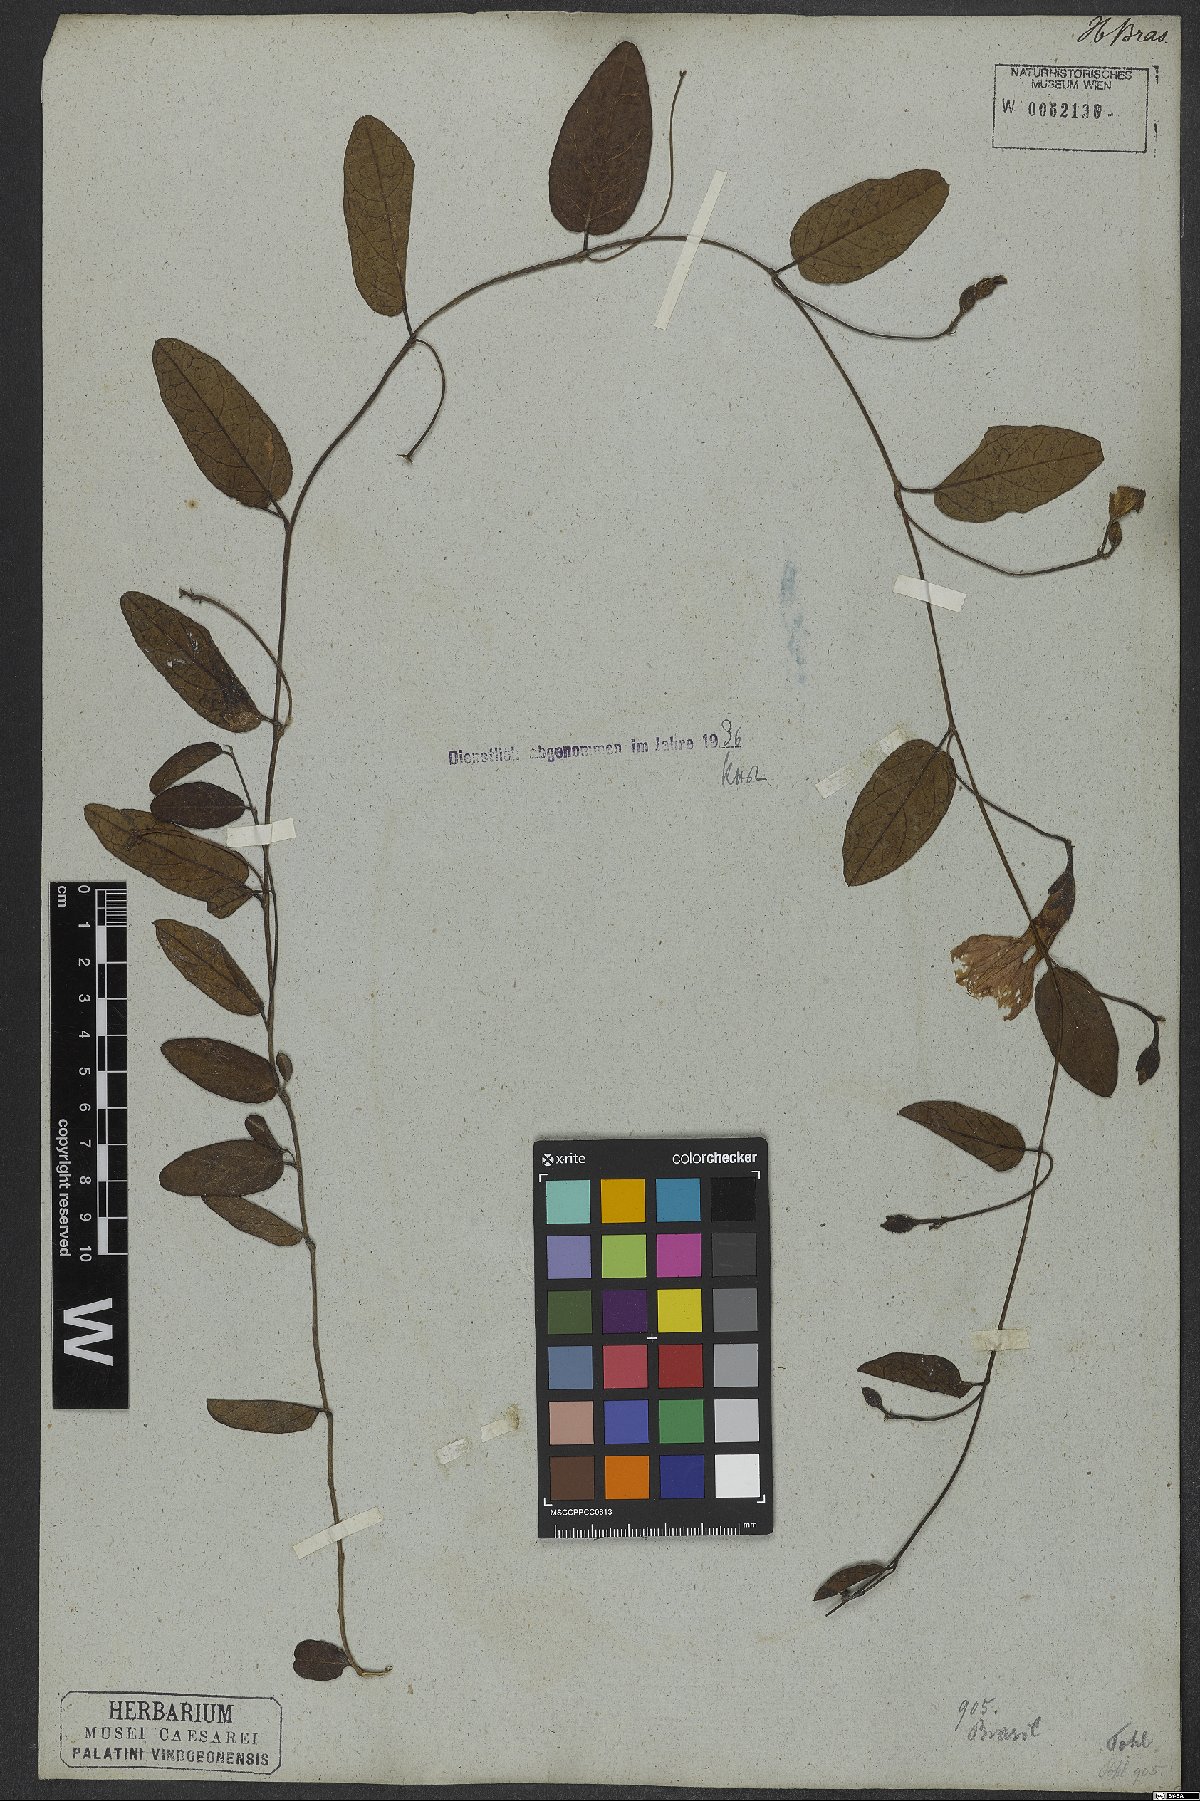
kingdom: Plantae
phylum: Tracheophyta
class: Magnoliopsida
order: Solanales
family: Convolvulaceae
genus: Ipomoea
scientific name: Ipomoea procurrens
